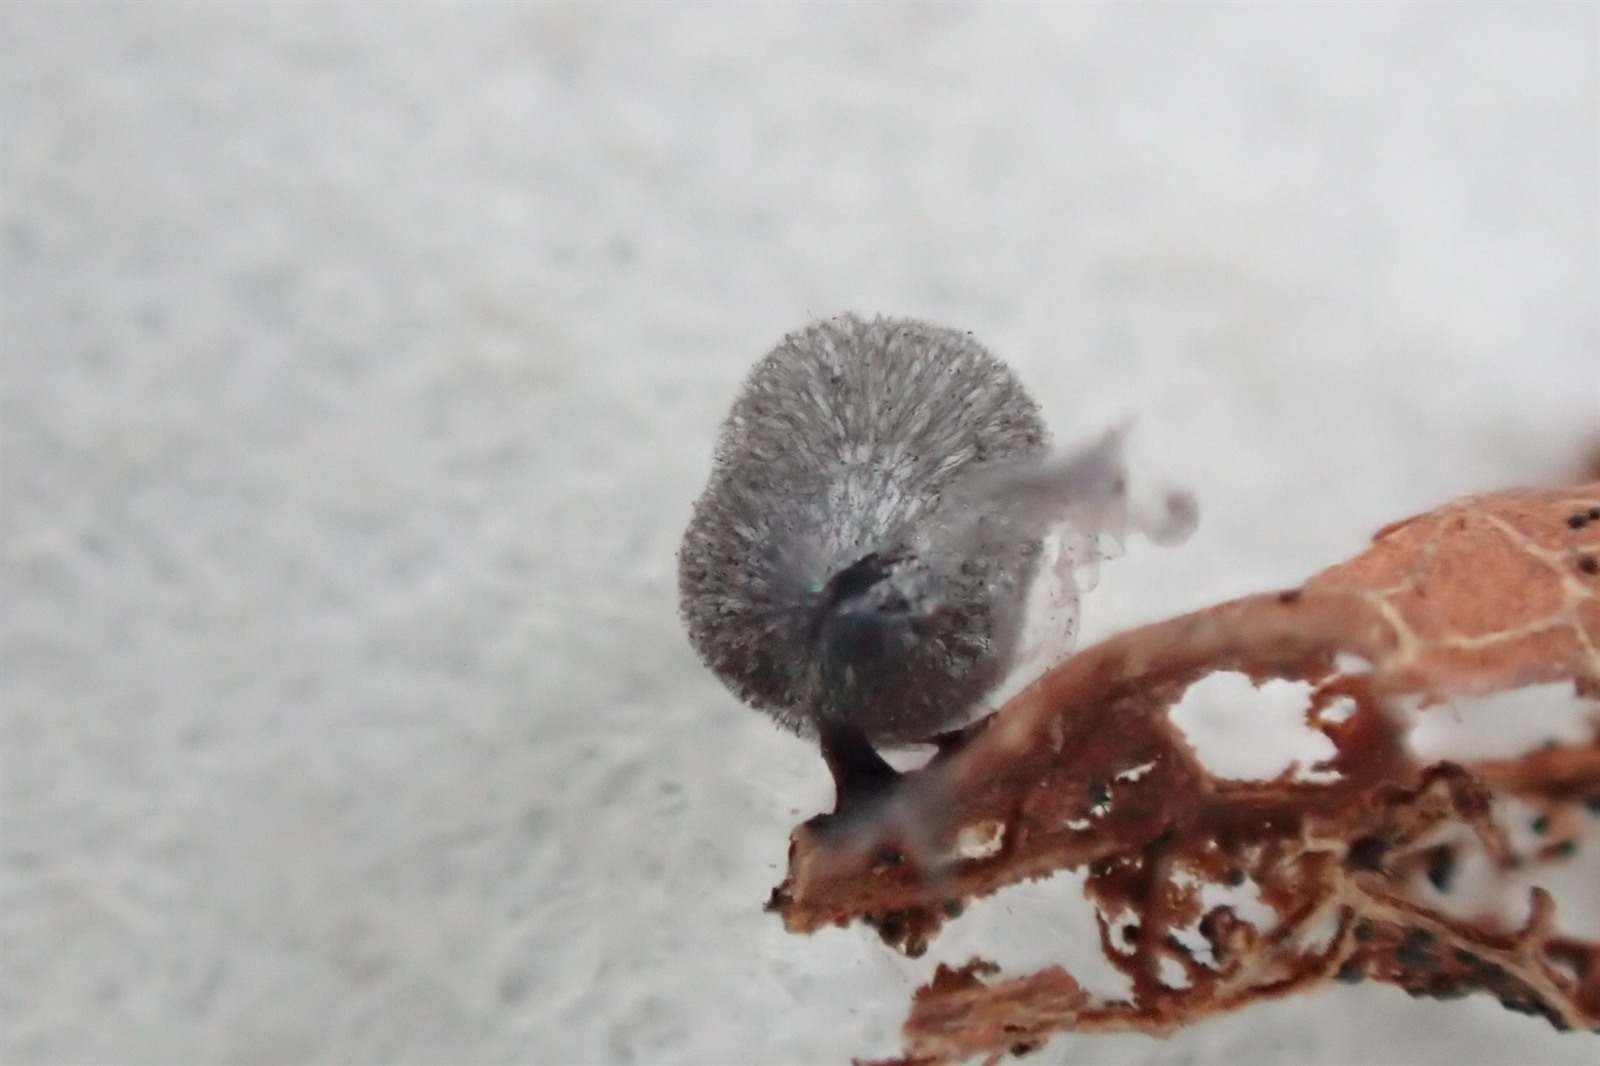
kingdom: Protozoa
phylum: Mycetozoa
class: Myxomycetes
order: Stemonitidales
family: Stemonitidaceae
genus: Lamproderma
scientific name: Lamproderma ovoideum
